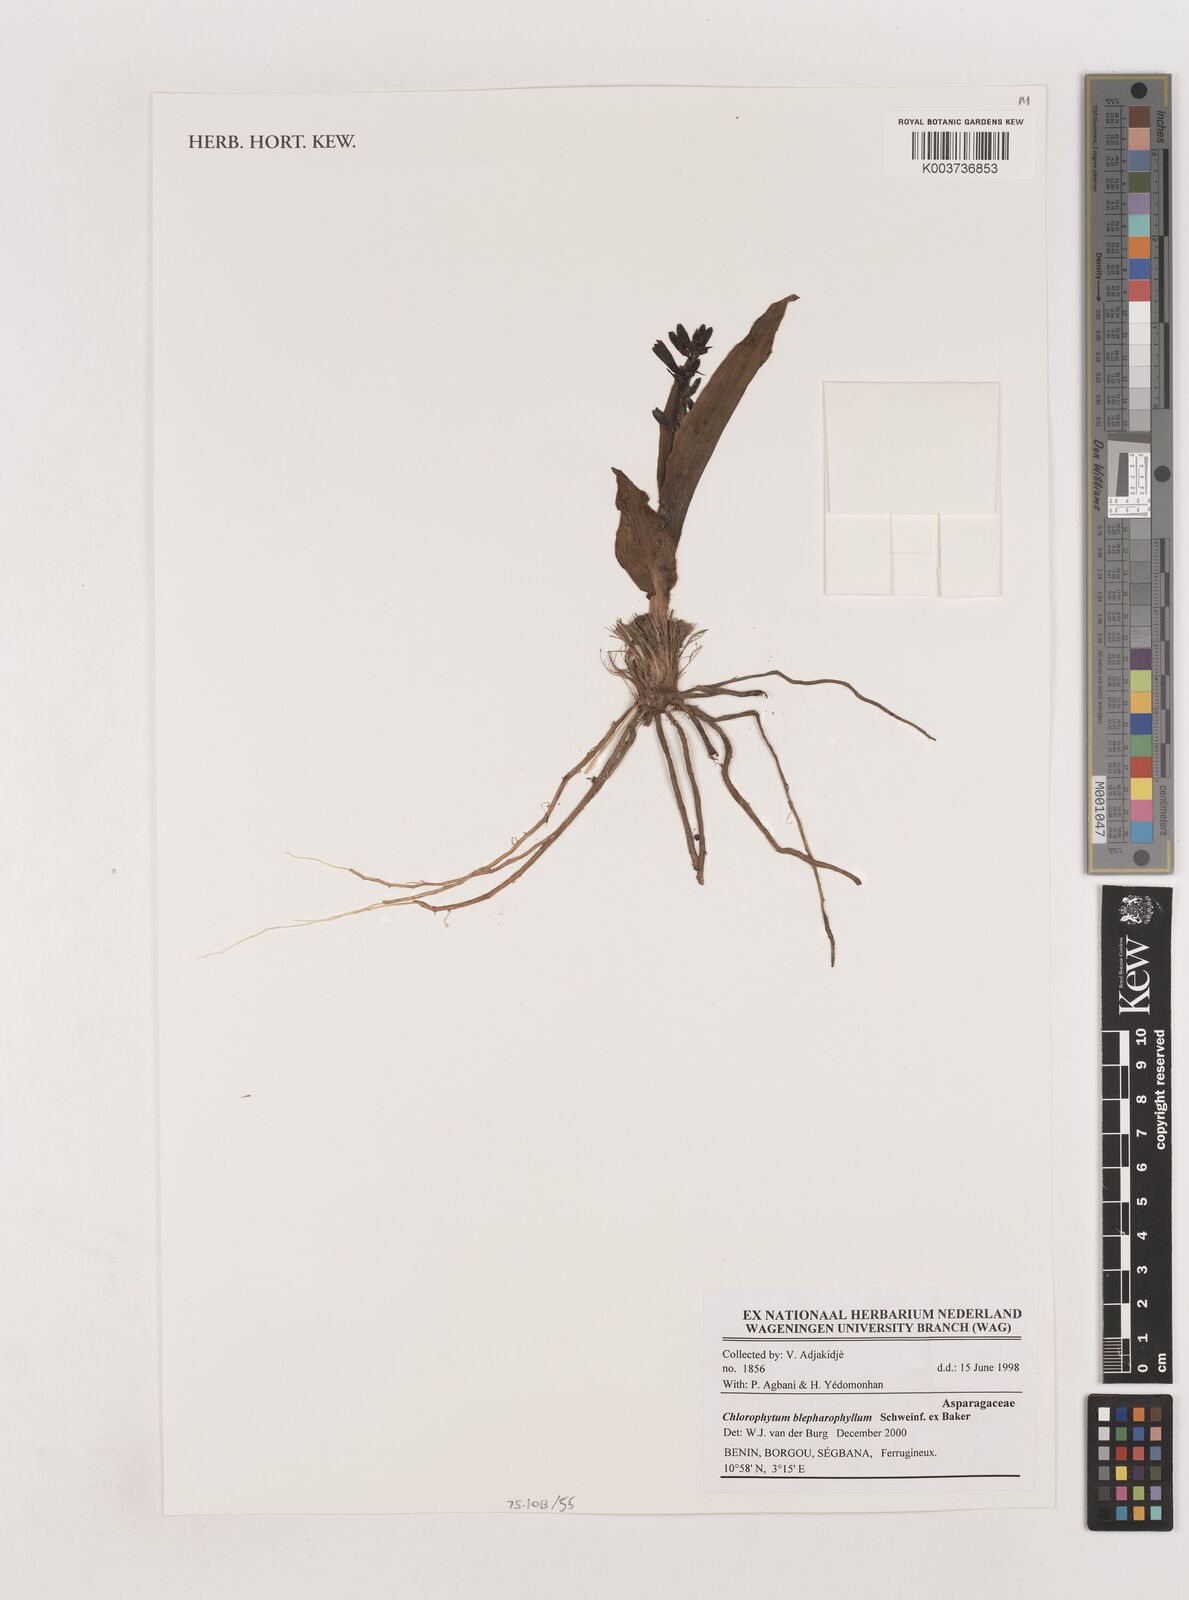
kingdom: Plantae
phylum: Tracheophyta
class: Liliopsida
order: Asparagales
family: Asparagaceae
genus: Chlorophytum
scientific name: Chlorophytum blepharophyllum
